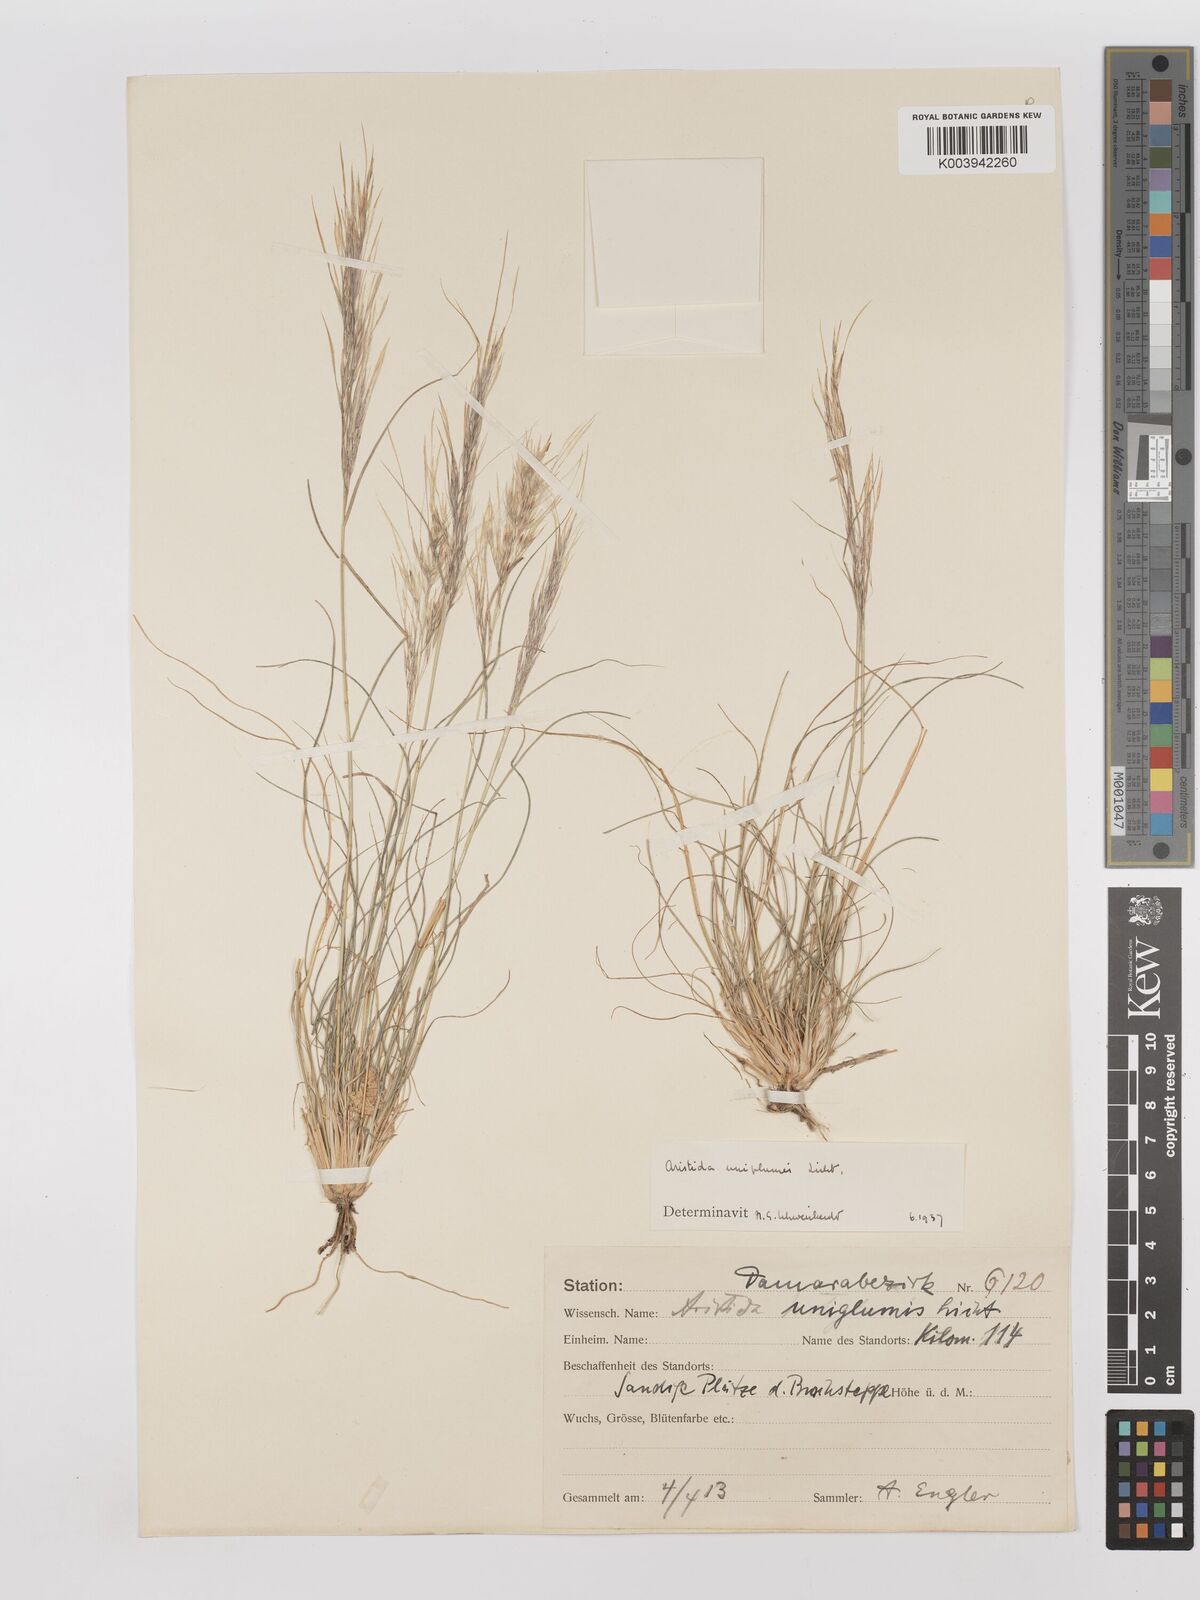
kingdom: Plantae
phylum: Tracheophyta
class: Liliopsida
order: Poales
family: Poaceae
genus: Stipagrostis
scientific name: Stipagrostis uniplumis
